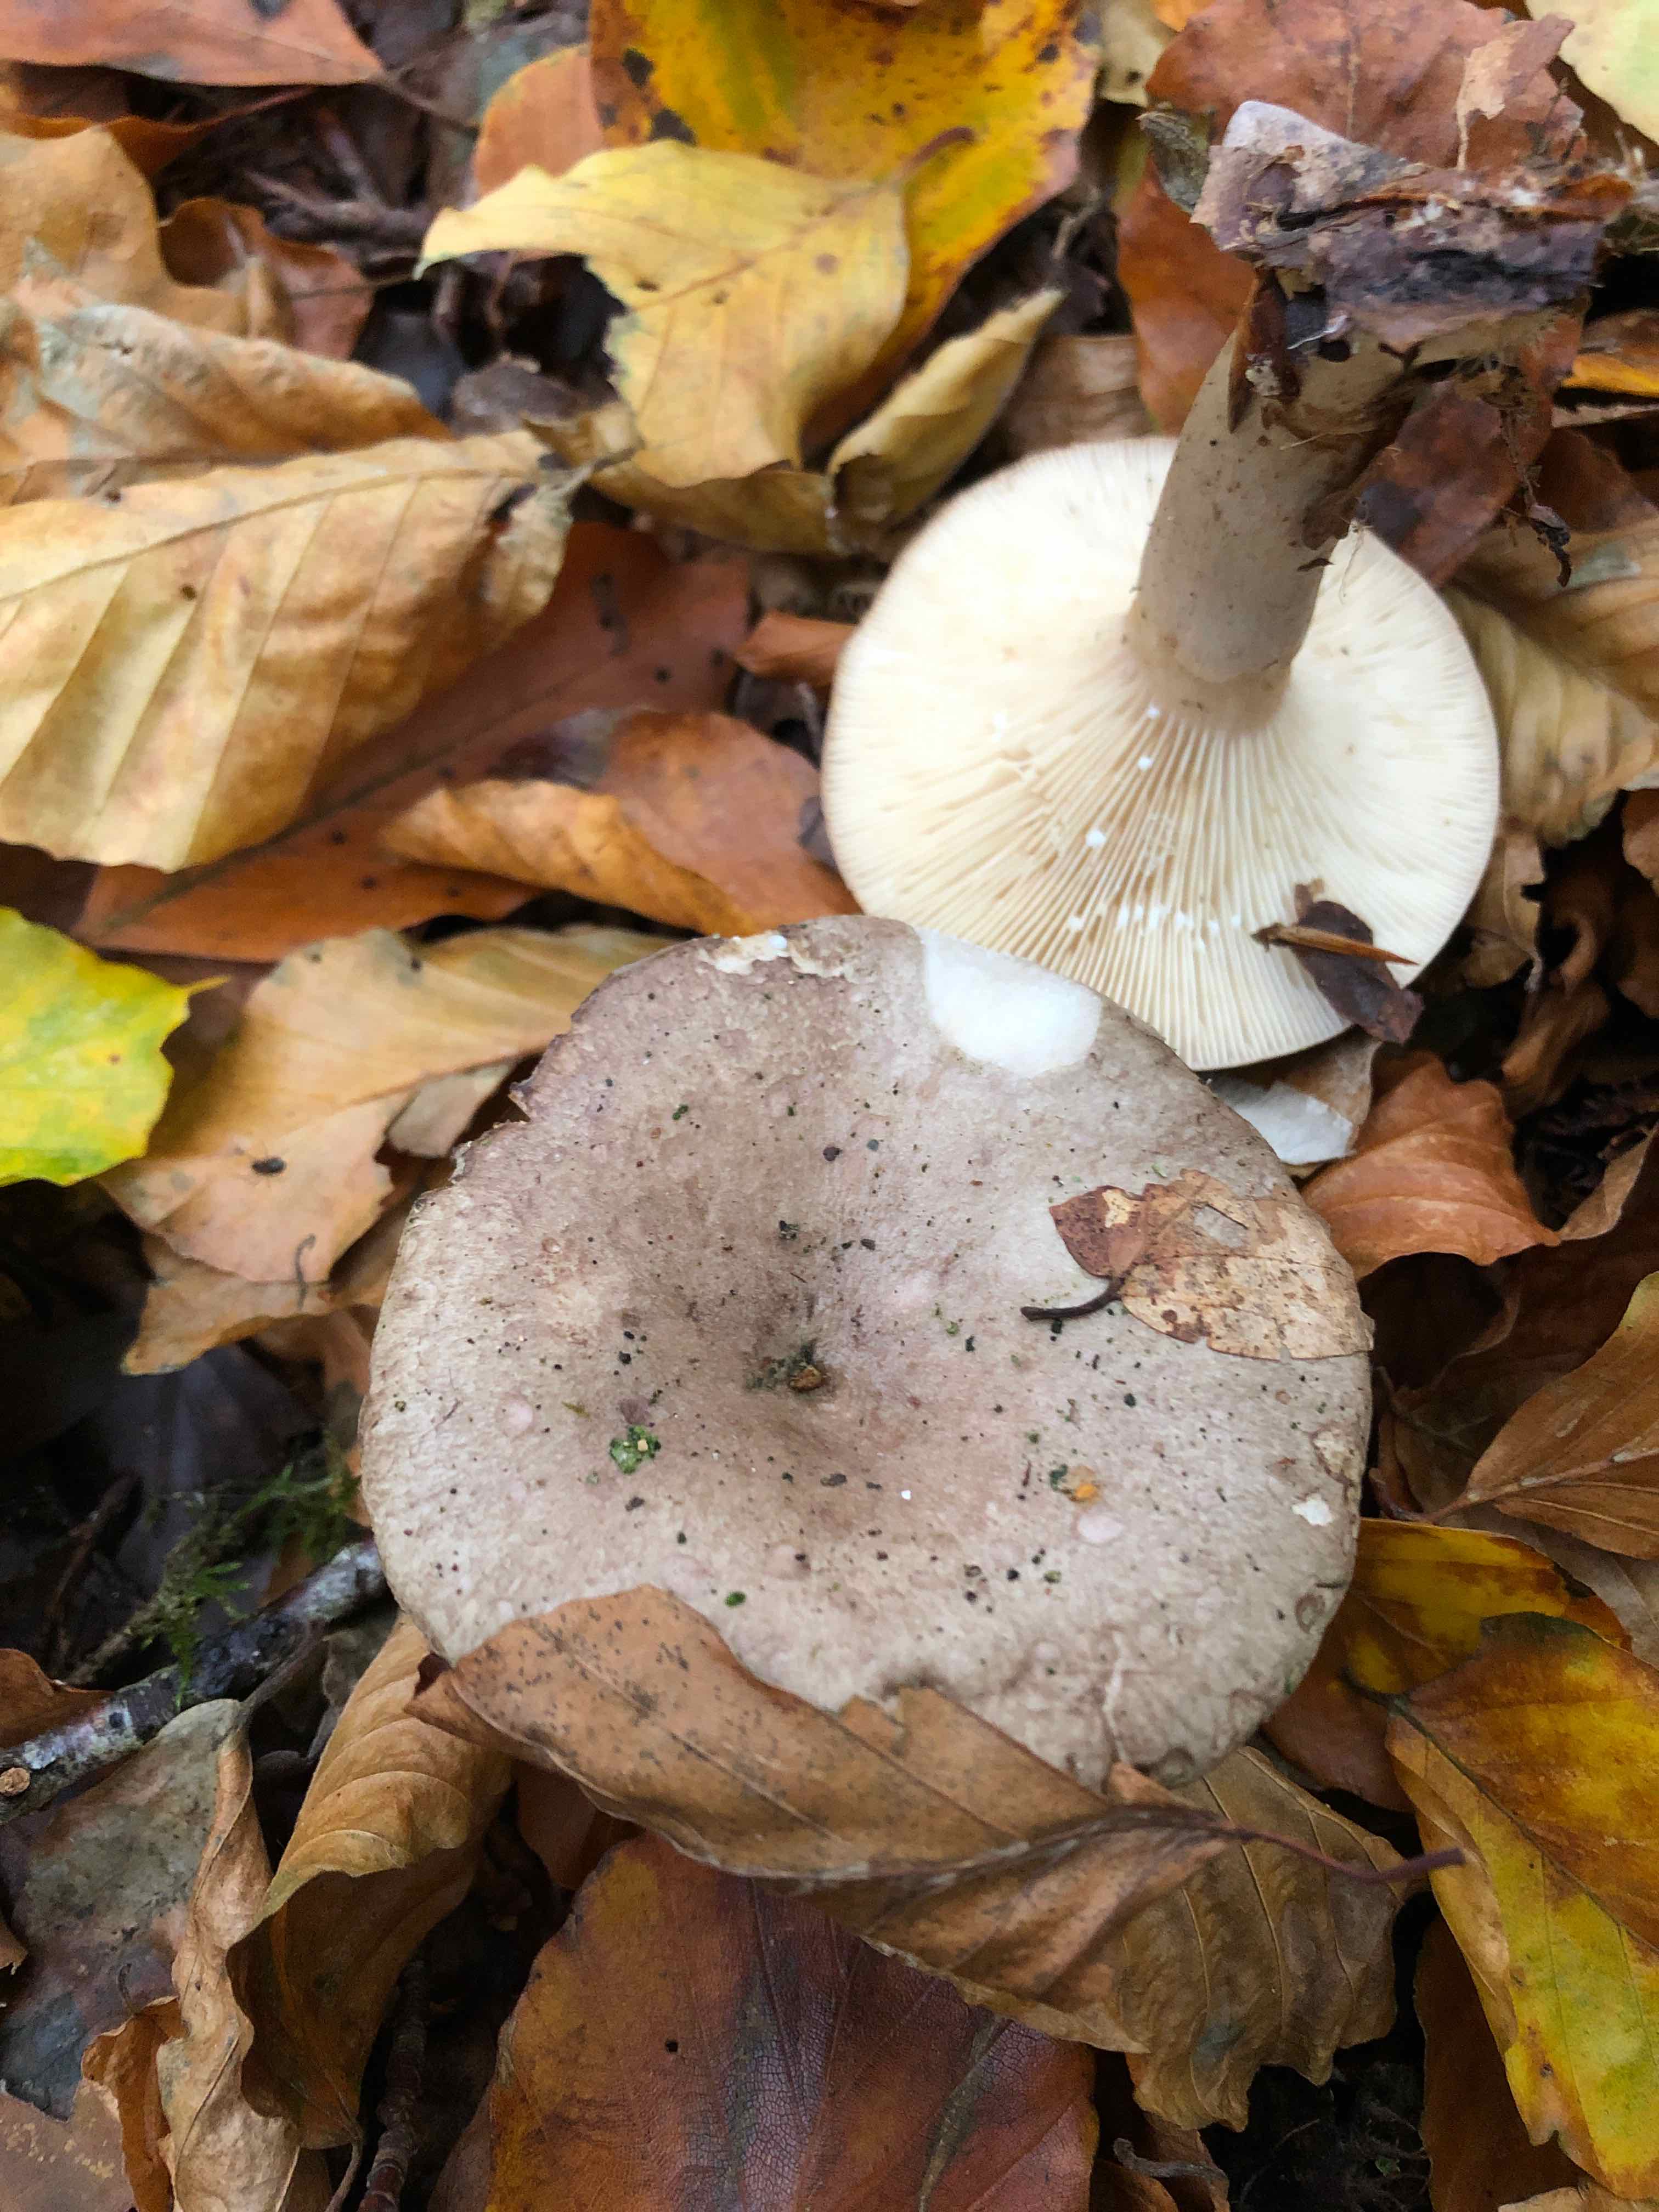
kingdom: Fungi
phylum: Basidiomycota
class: Agaricomycetes
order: Russulales
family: Russulaceae
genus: Lactarius
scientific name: Lactarius blennius
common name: dråbeplettet mælkehat
